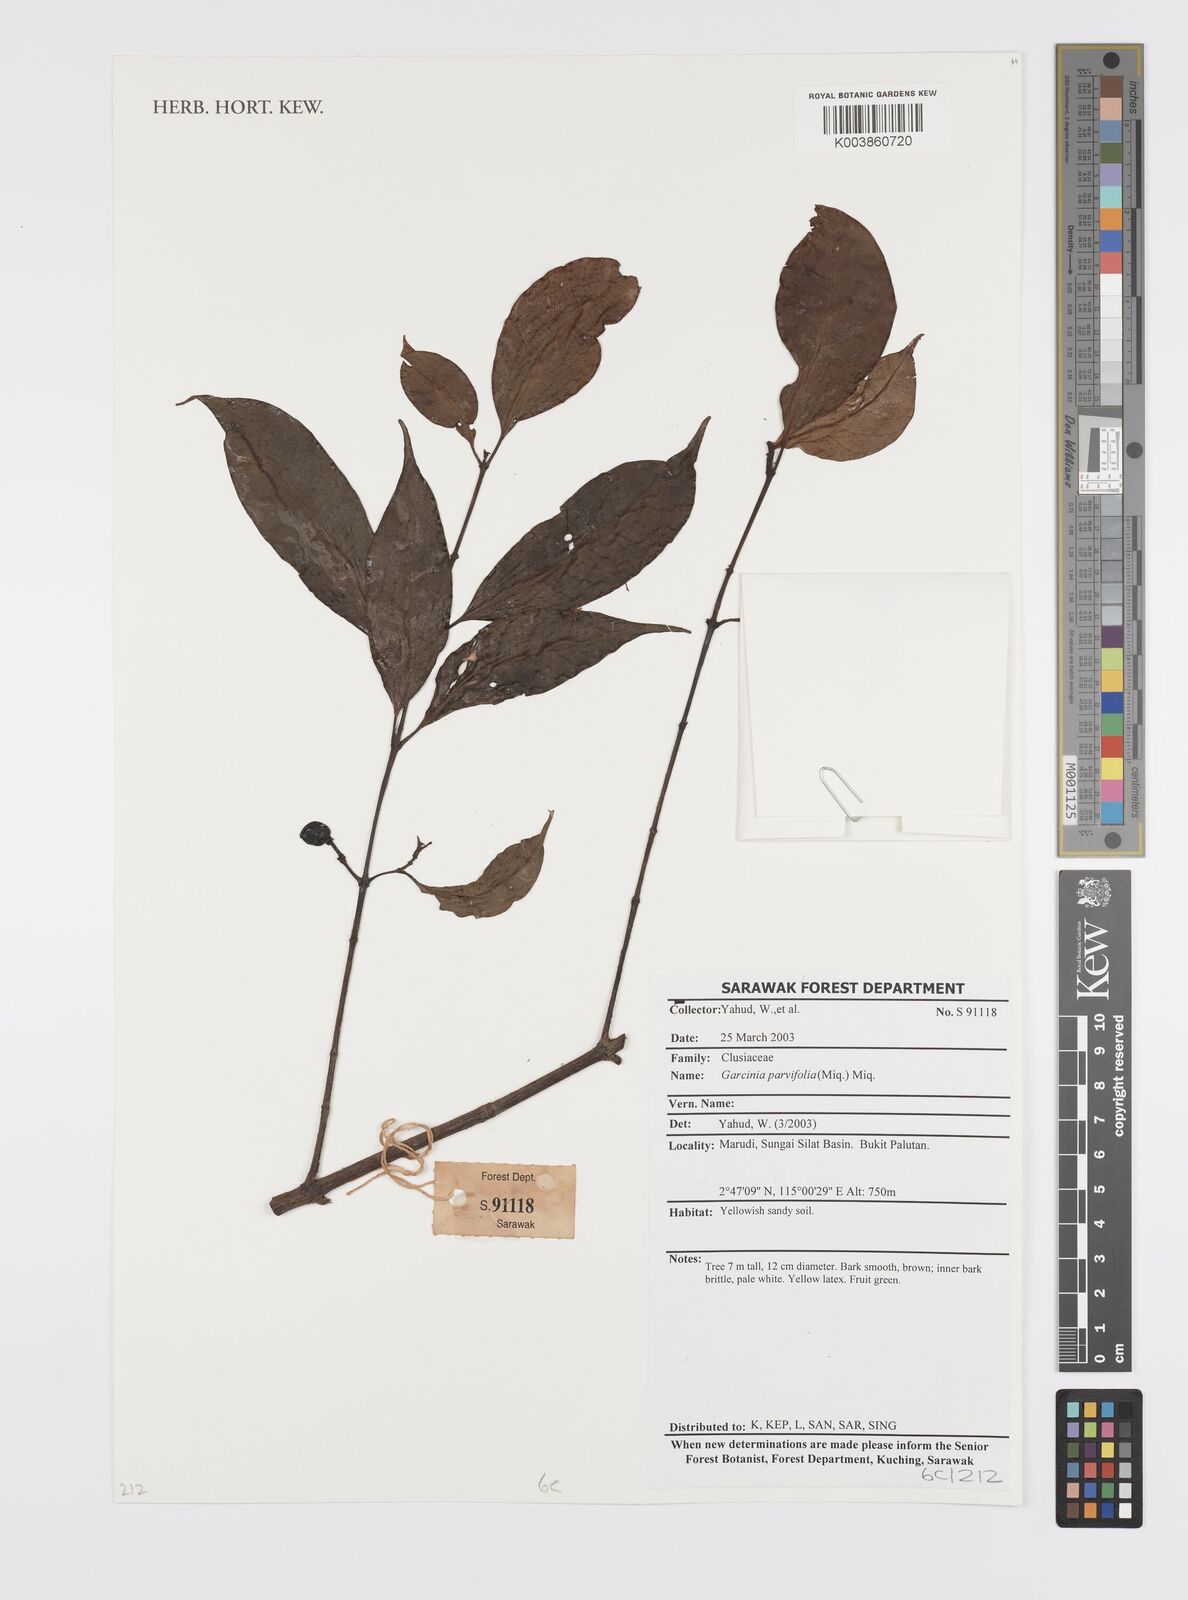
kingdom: Plantae
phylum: Tracheophyta
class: Magnoliopsida
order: Malpighiales
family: Clusiaceae
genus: Garcinia
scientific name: Garcinia parvifolia
